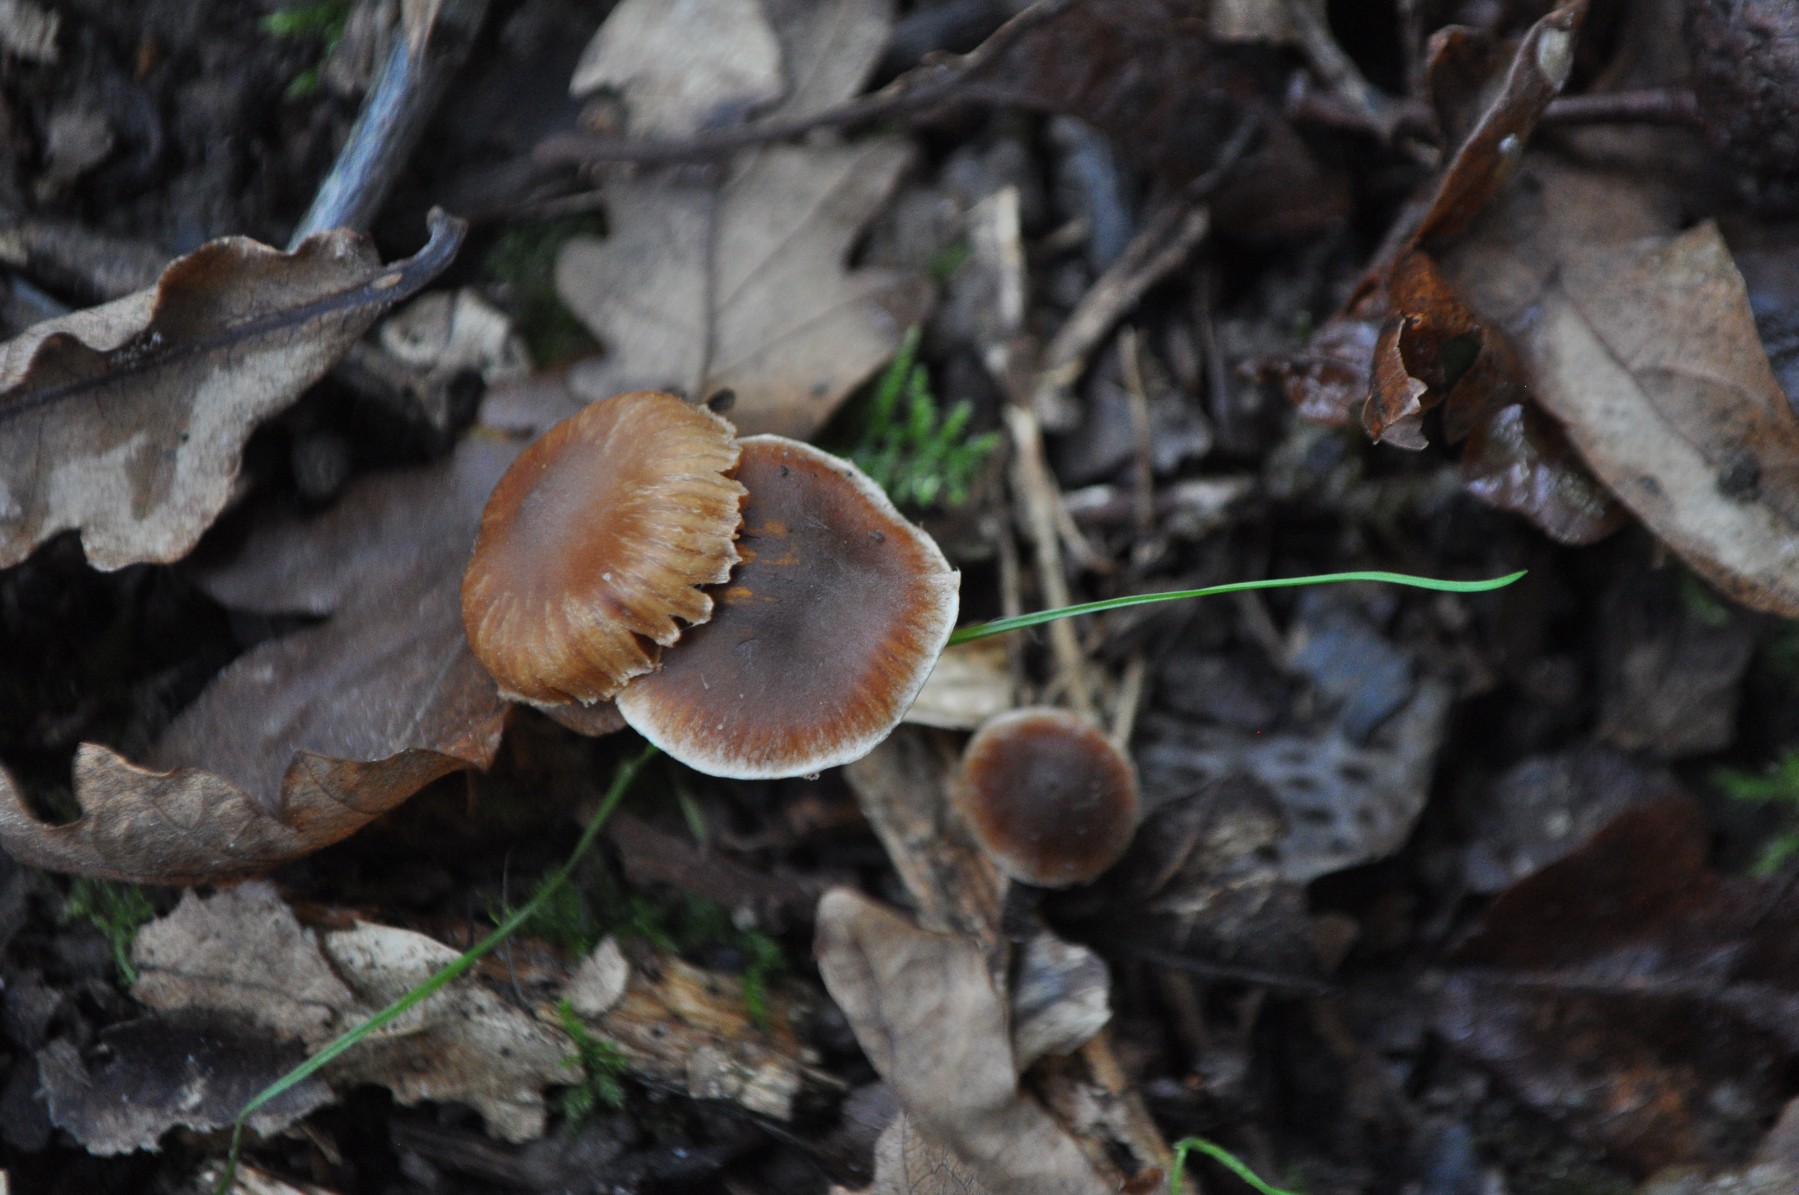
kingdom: Fungi
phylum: Basidiomycota
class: Agaricomycetes
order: Agaricales
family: Cortinariaceae
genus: Cortinarius
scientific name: Cortinarius
